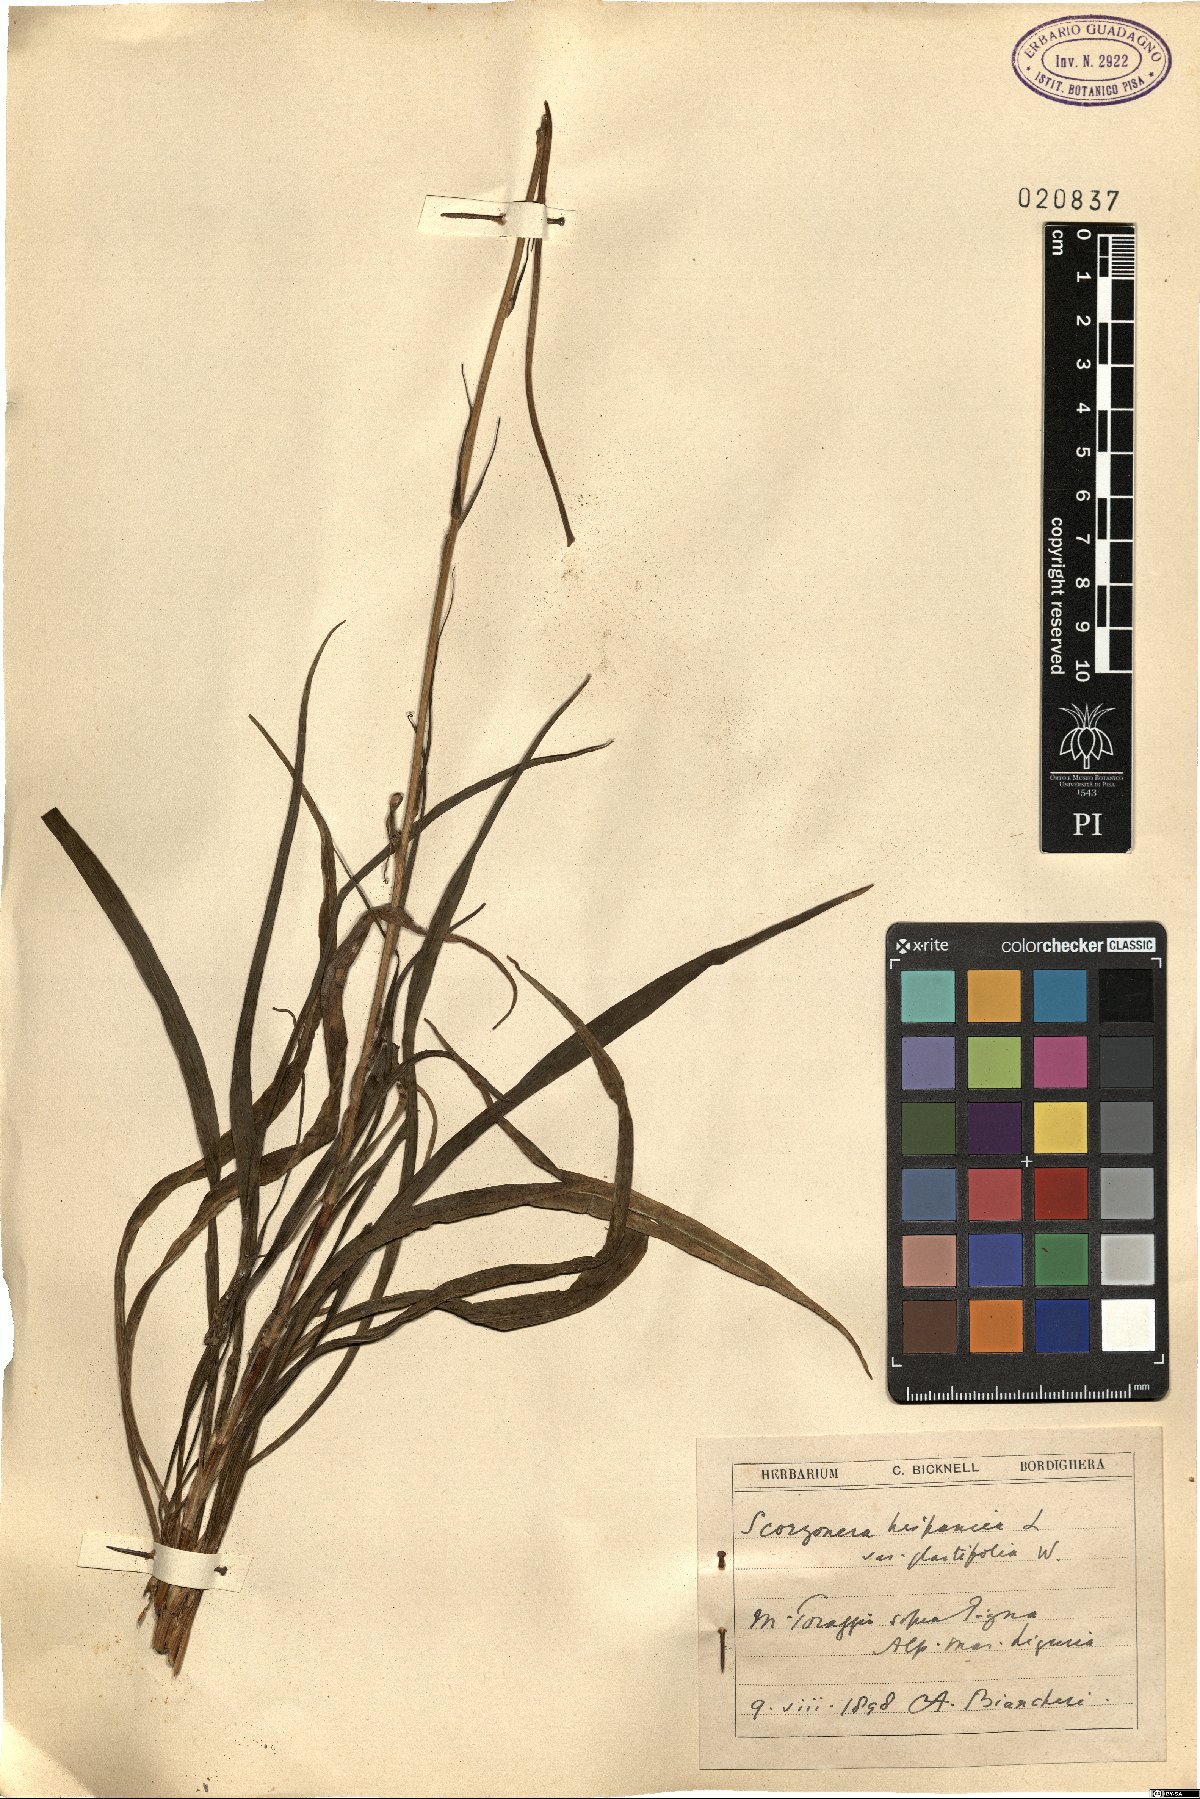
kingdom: Plantae
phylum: Tracheophyta
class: Magnoliopsida
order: Asterales
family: Asteraceae
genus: Pseudopodospermum
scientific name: Pseudopodospermum hispanicum
